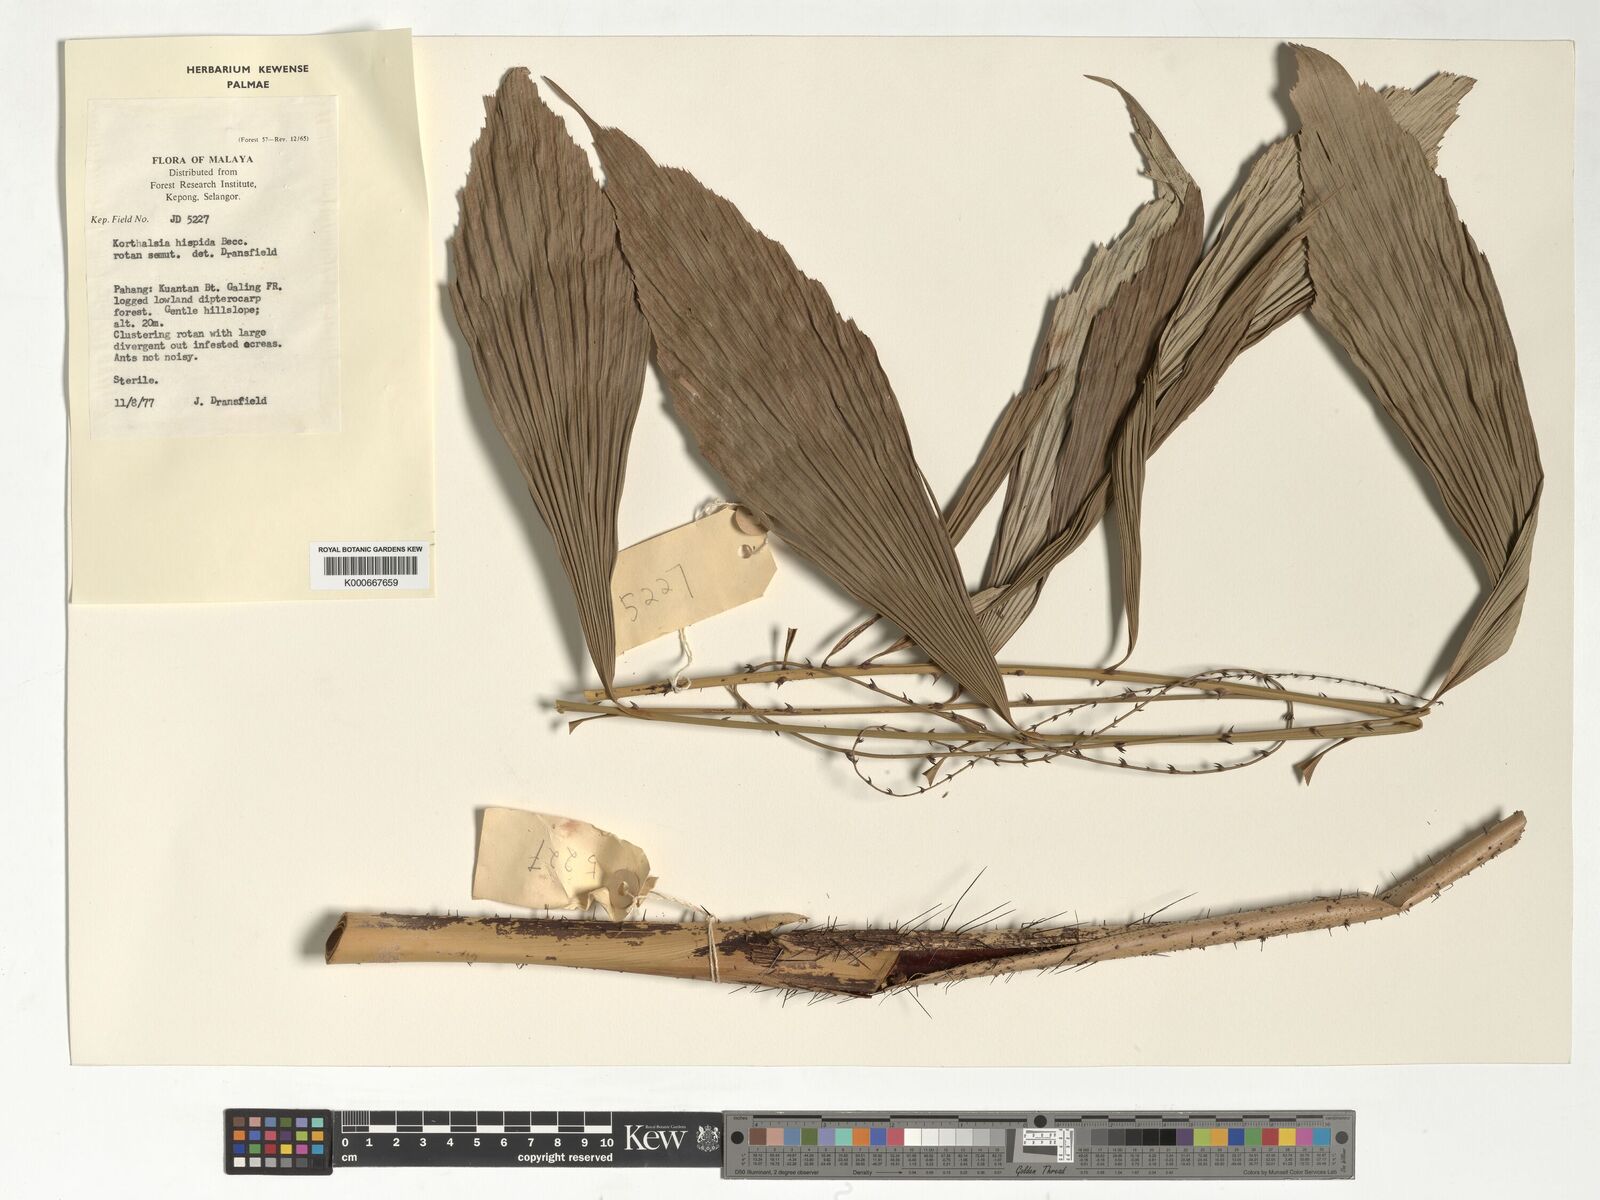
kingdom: Plantae
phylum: Tracheophyta
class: Liliopsida
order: Arecales
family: Arecaceae
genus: Korthalsia
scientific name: Korthalsia hispida
